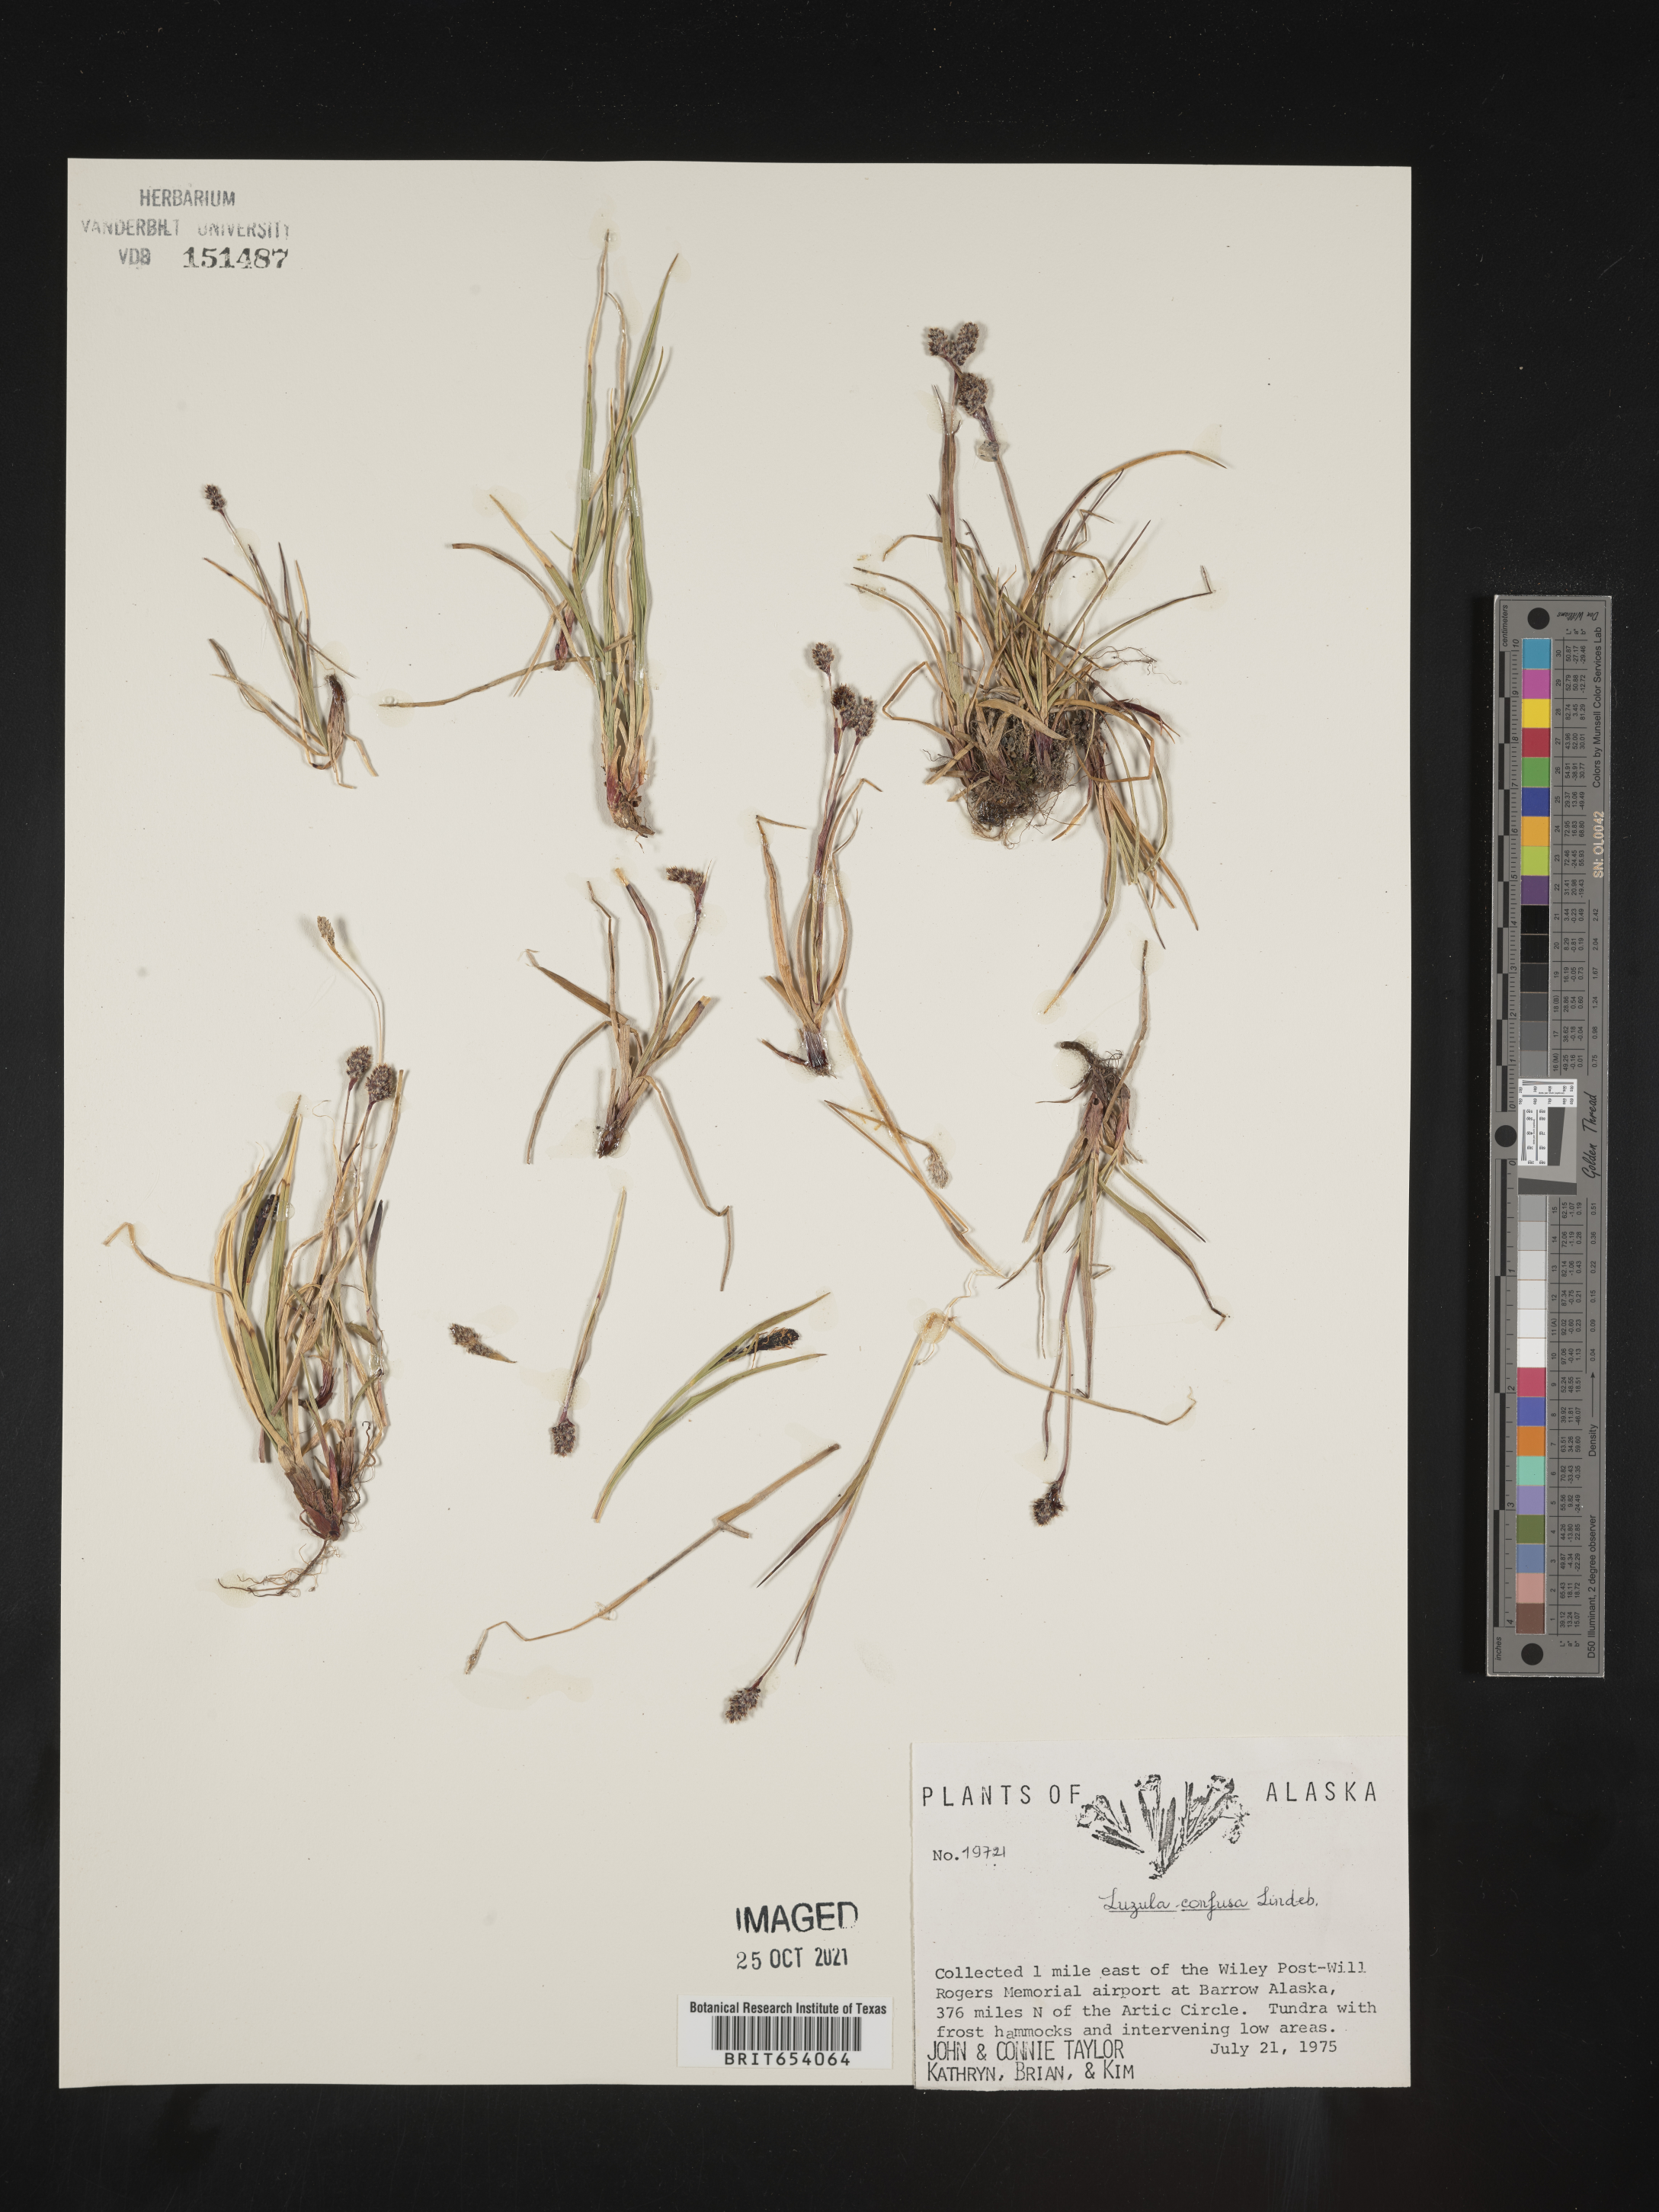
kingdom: Plantae
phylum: Tracheophyta
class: Liliopsida
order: Poales
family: Juncaceae
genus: Luzula
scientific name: Luzula confusa
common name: Northern wood rush
